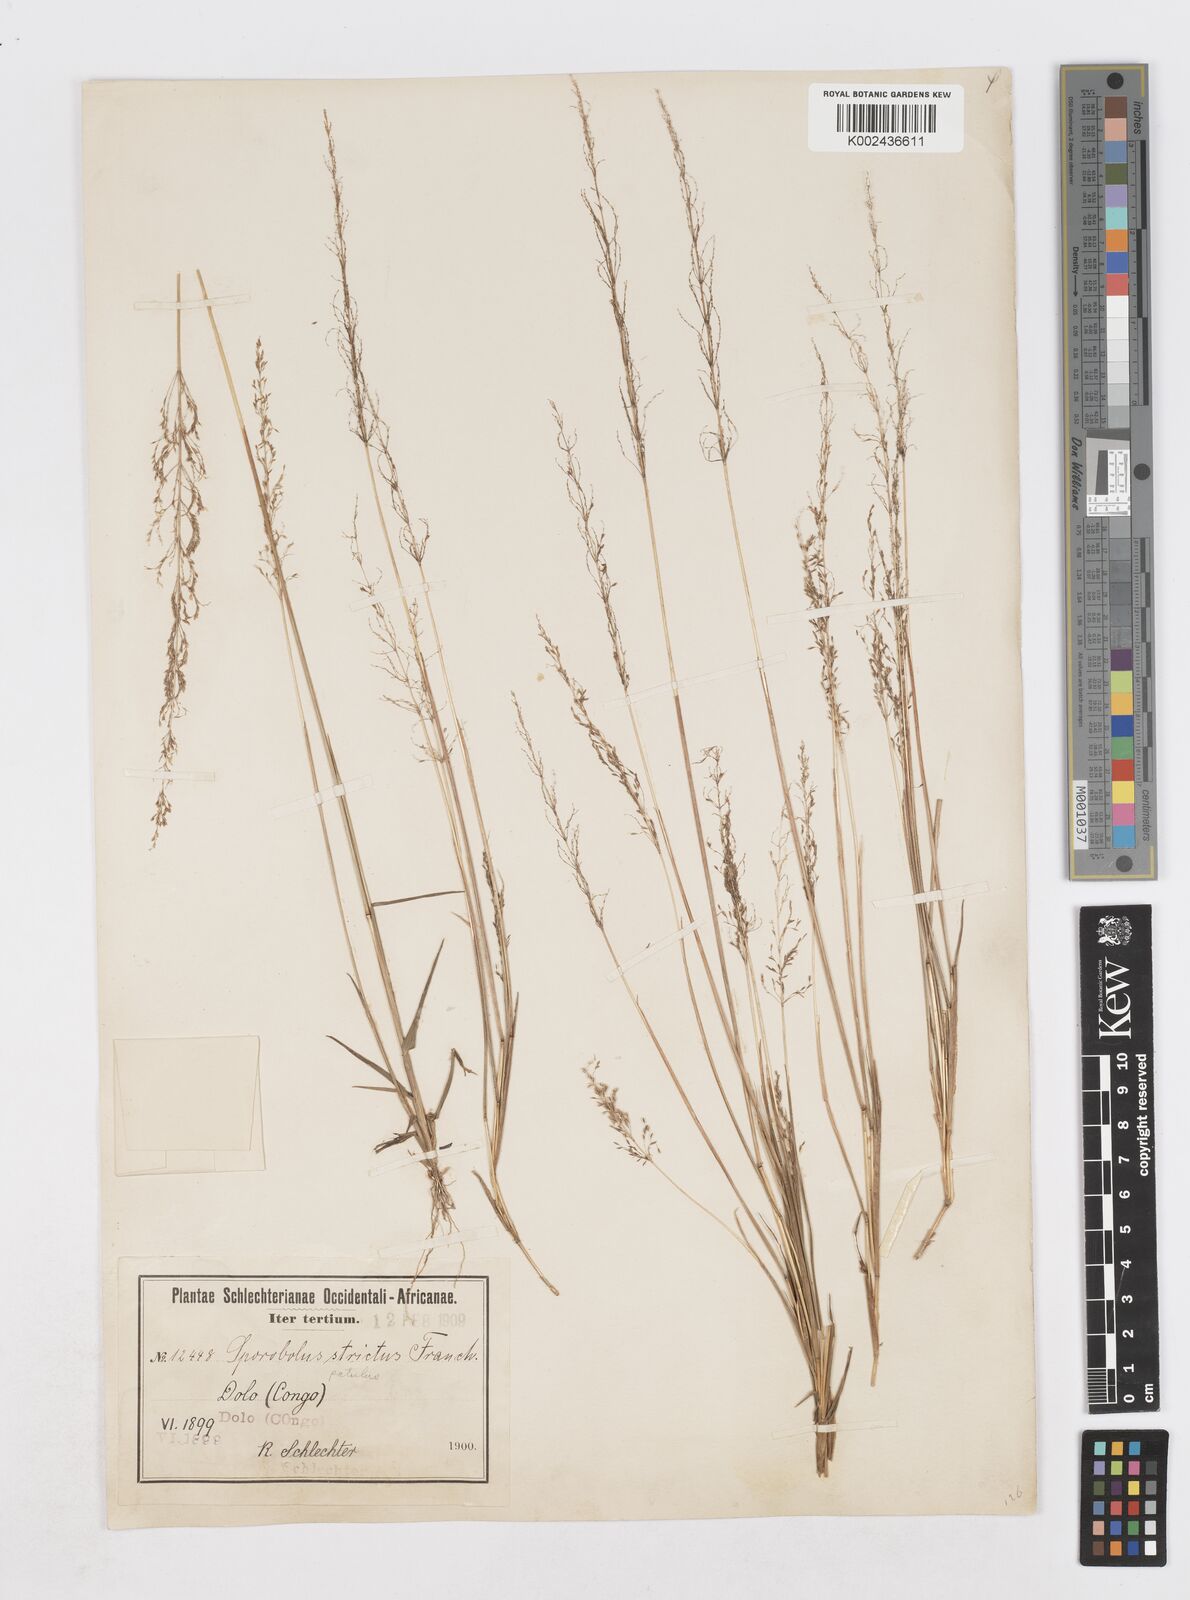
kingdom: Plantae
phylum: Tracheophyta
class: Liliopsida
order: Poales
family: Poaceae
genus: Sporobolus
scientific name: Sporobolus paniculatus
